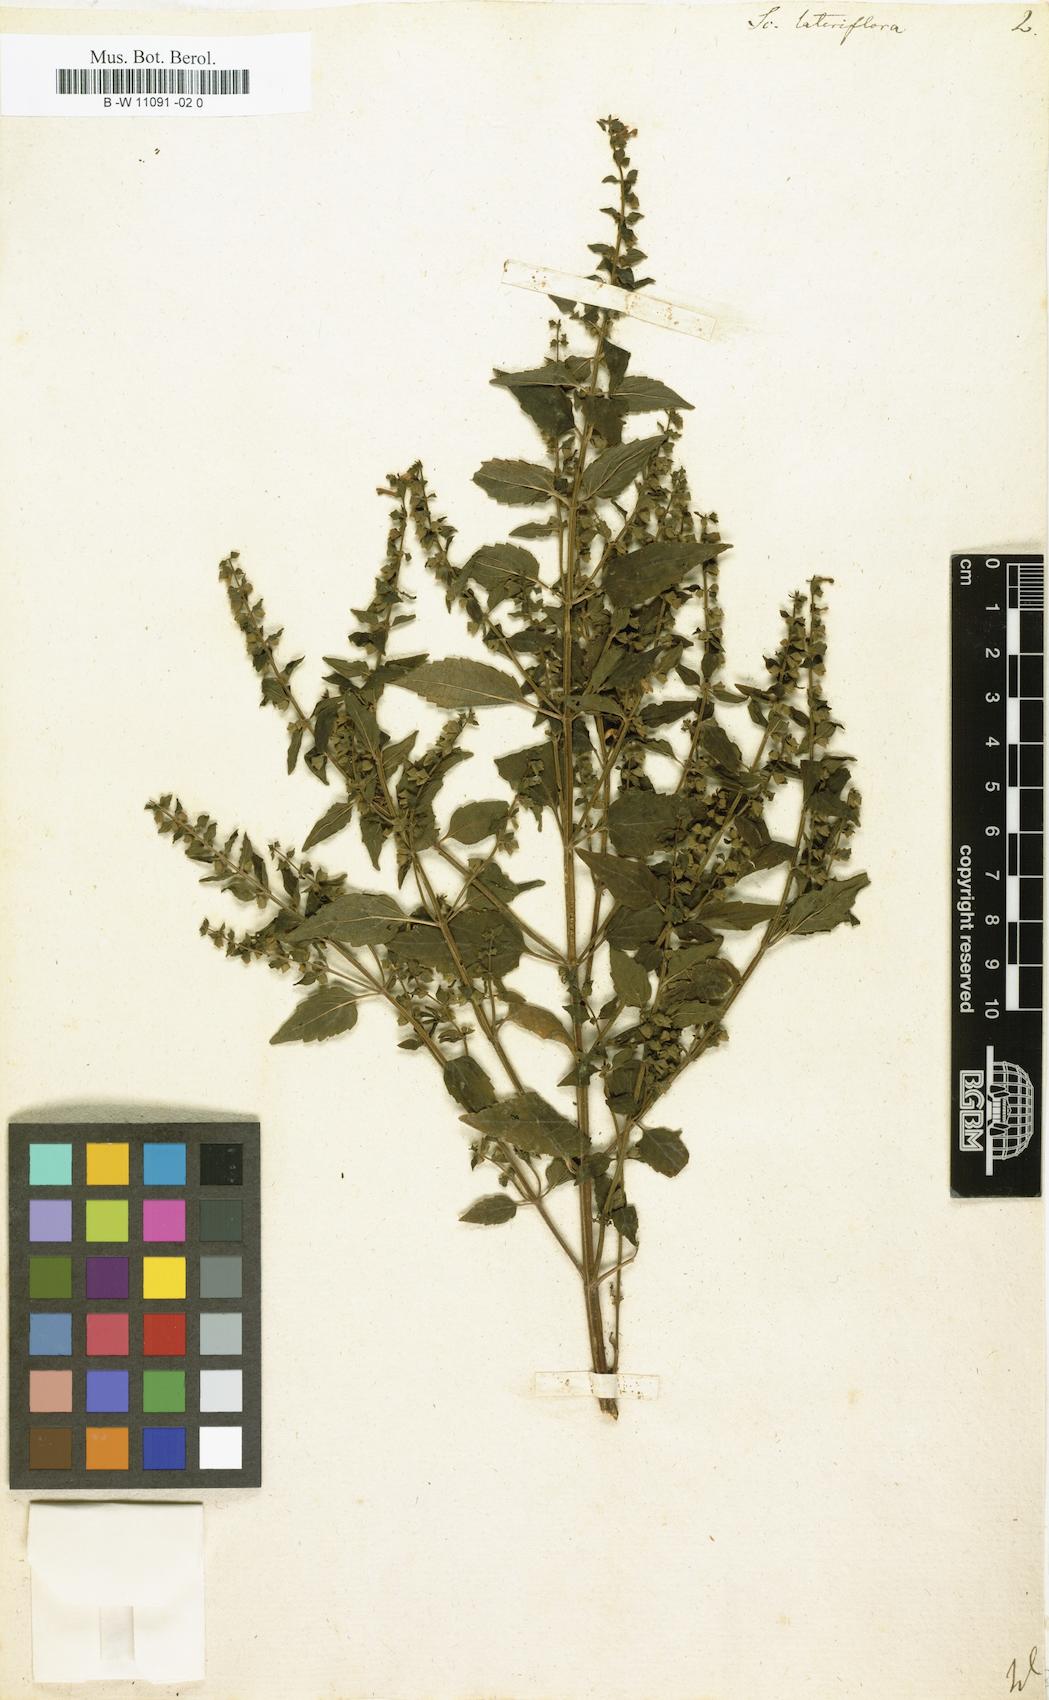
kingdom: Plantae
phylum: Tracheophyta
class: Magnoliopsida
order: Lamiales
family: Lamiaceae
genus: Scutellaria
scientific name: Scutellaria lateriflora
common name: Blue skullcap
